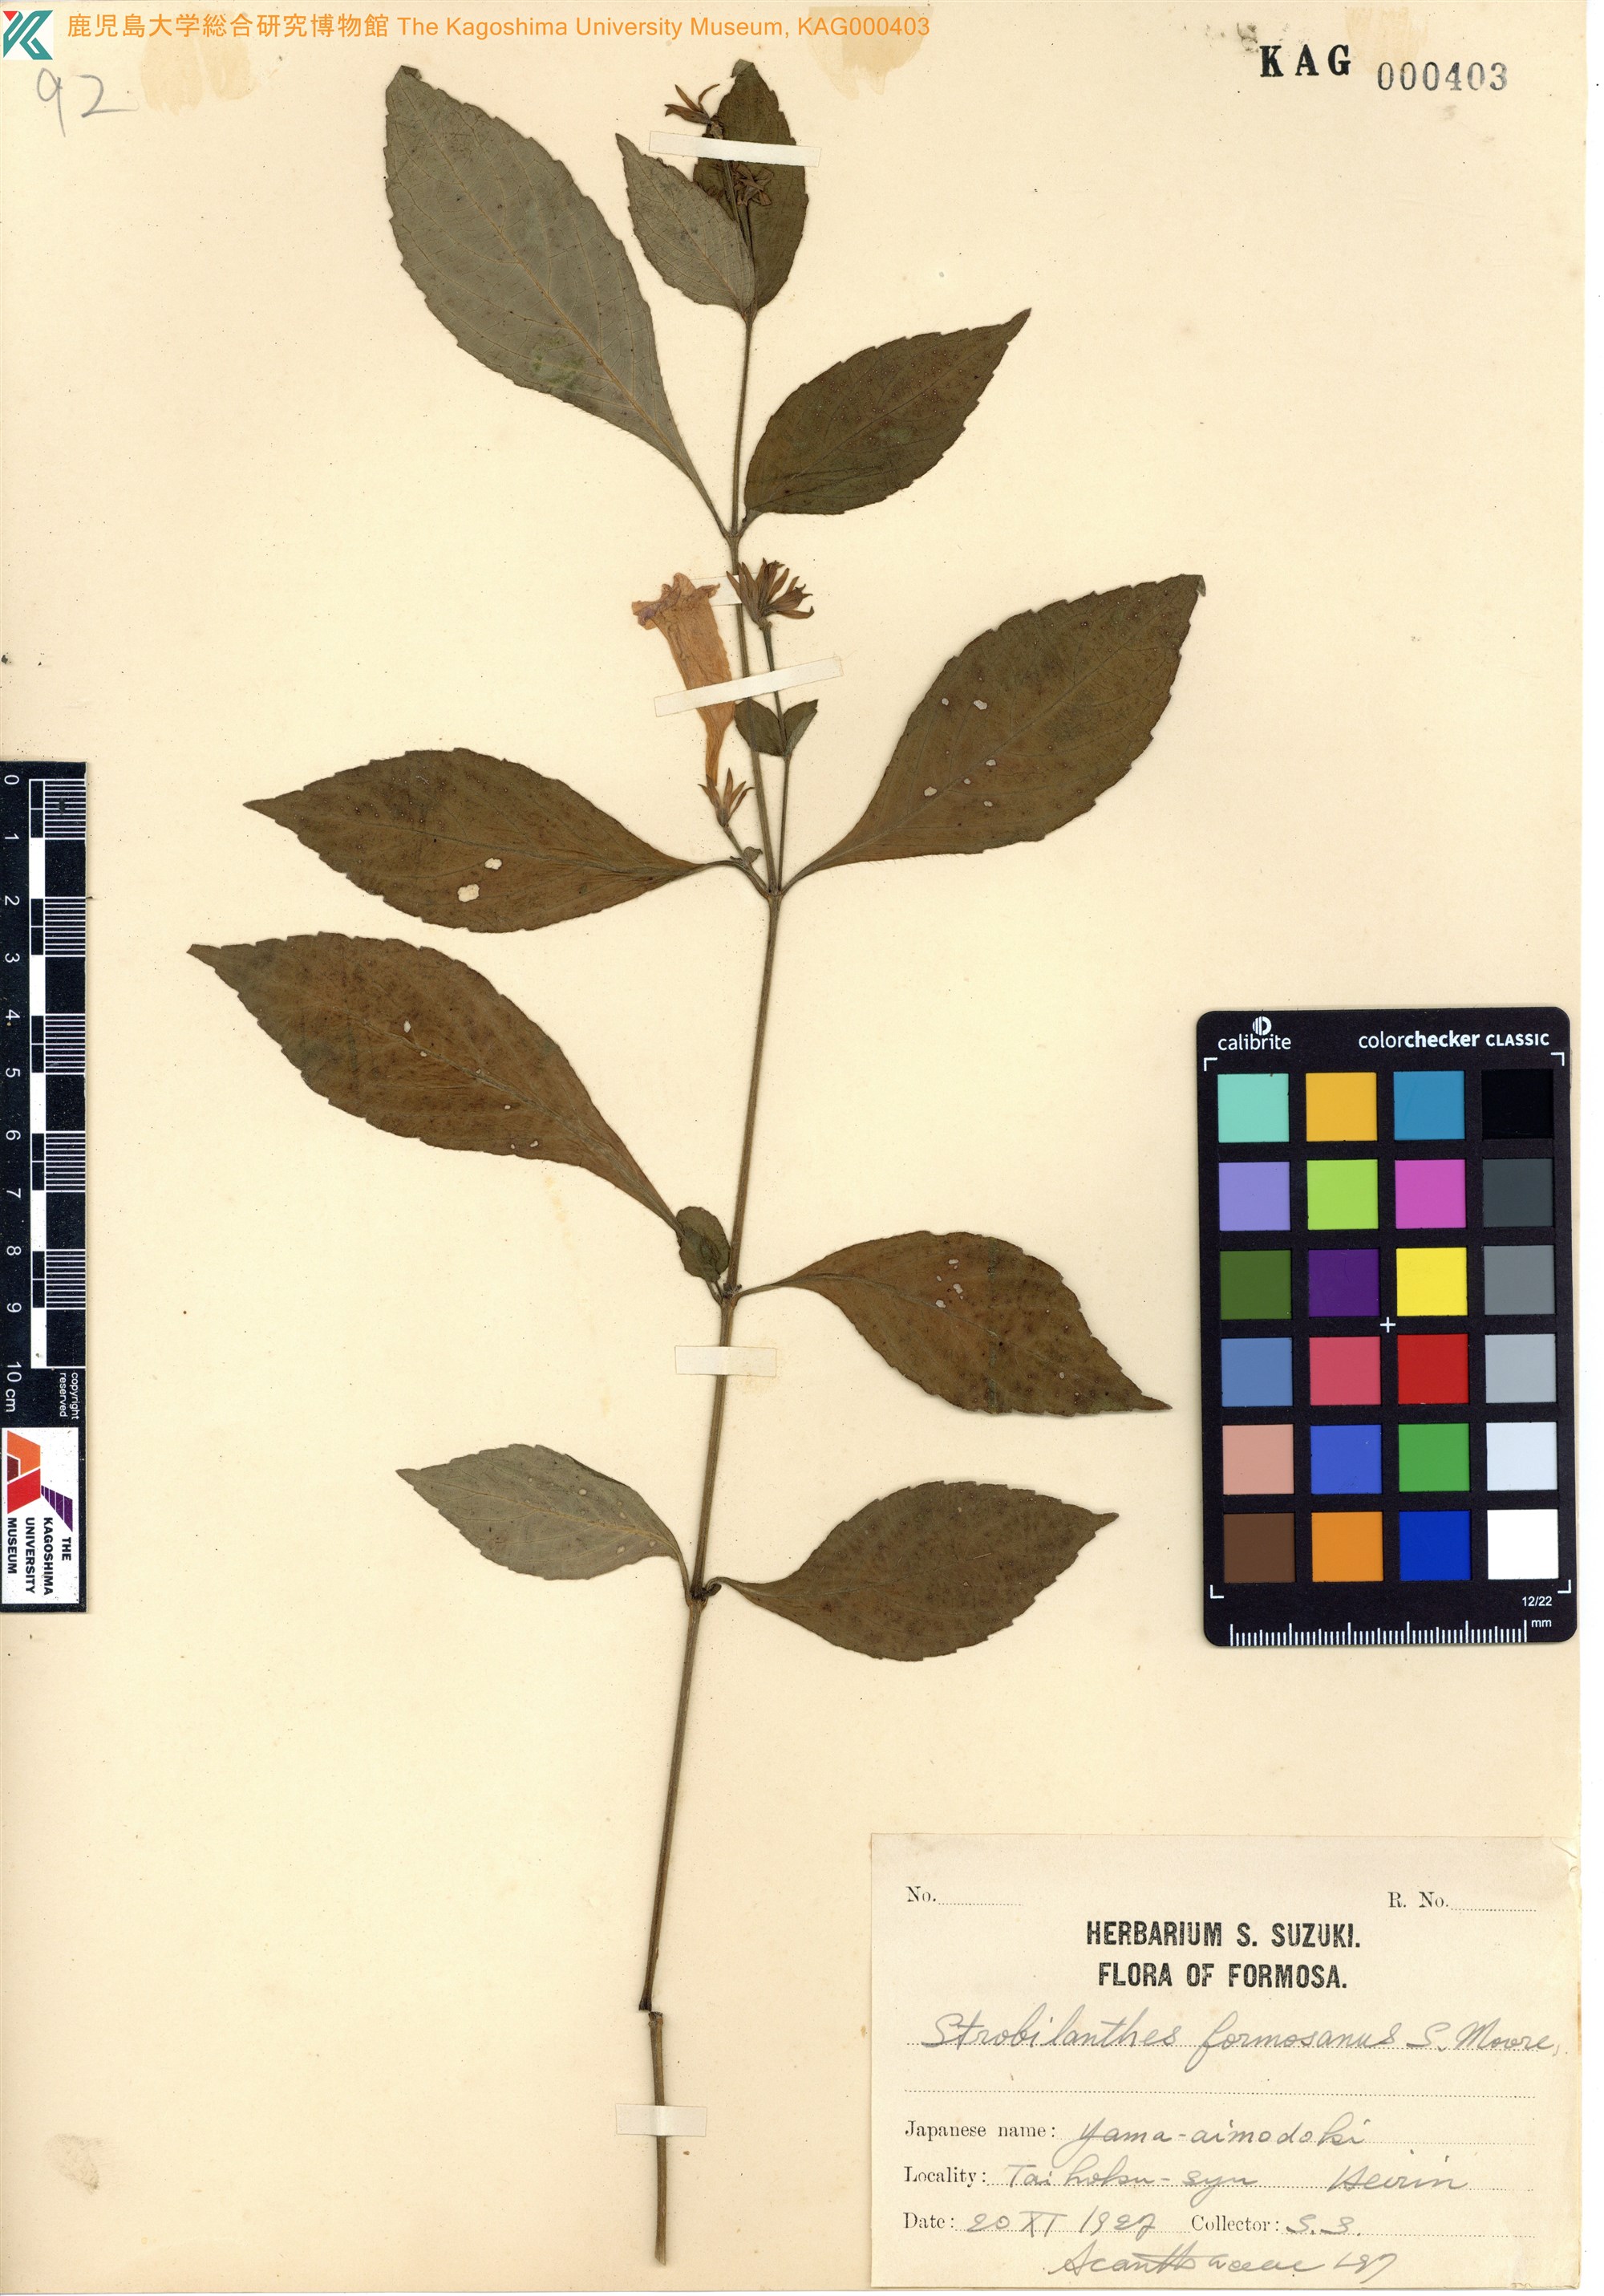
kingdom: Plantae
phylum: Tracheophyta
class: Magnoliopsida
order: Lamiales
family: Acanthaceae
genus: Strobilanthes
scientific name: Strobilanthes formosana
